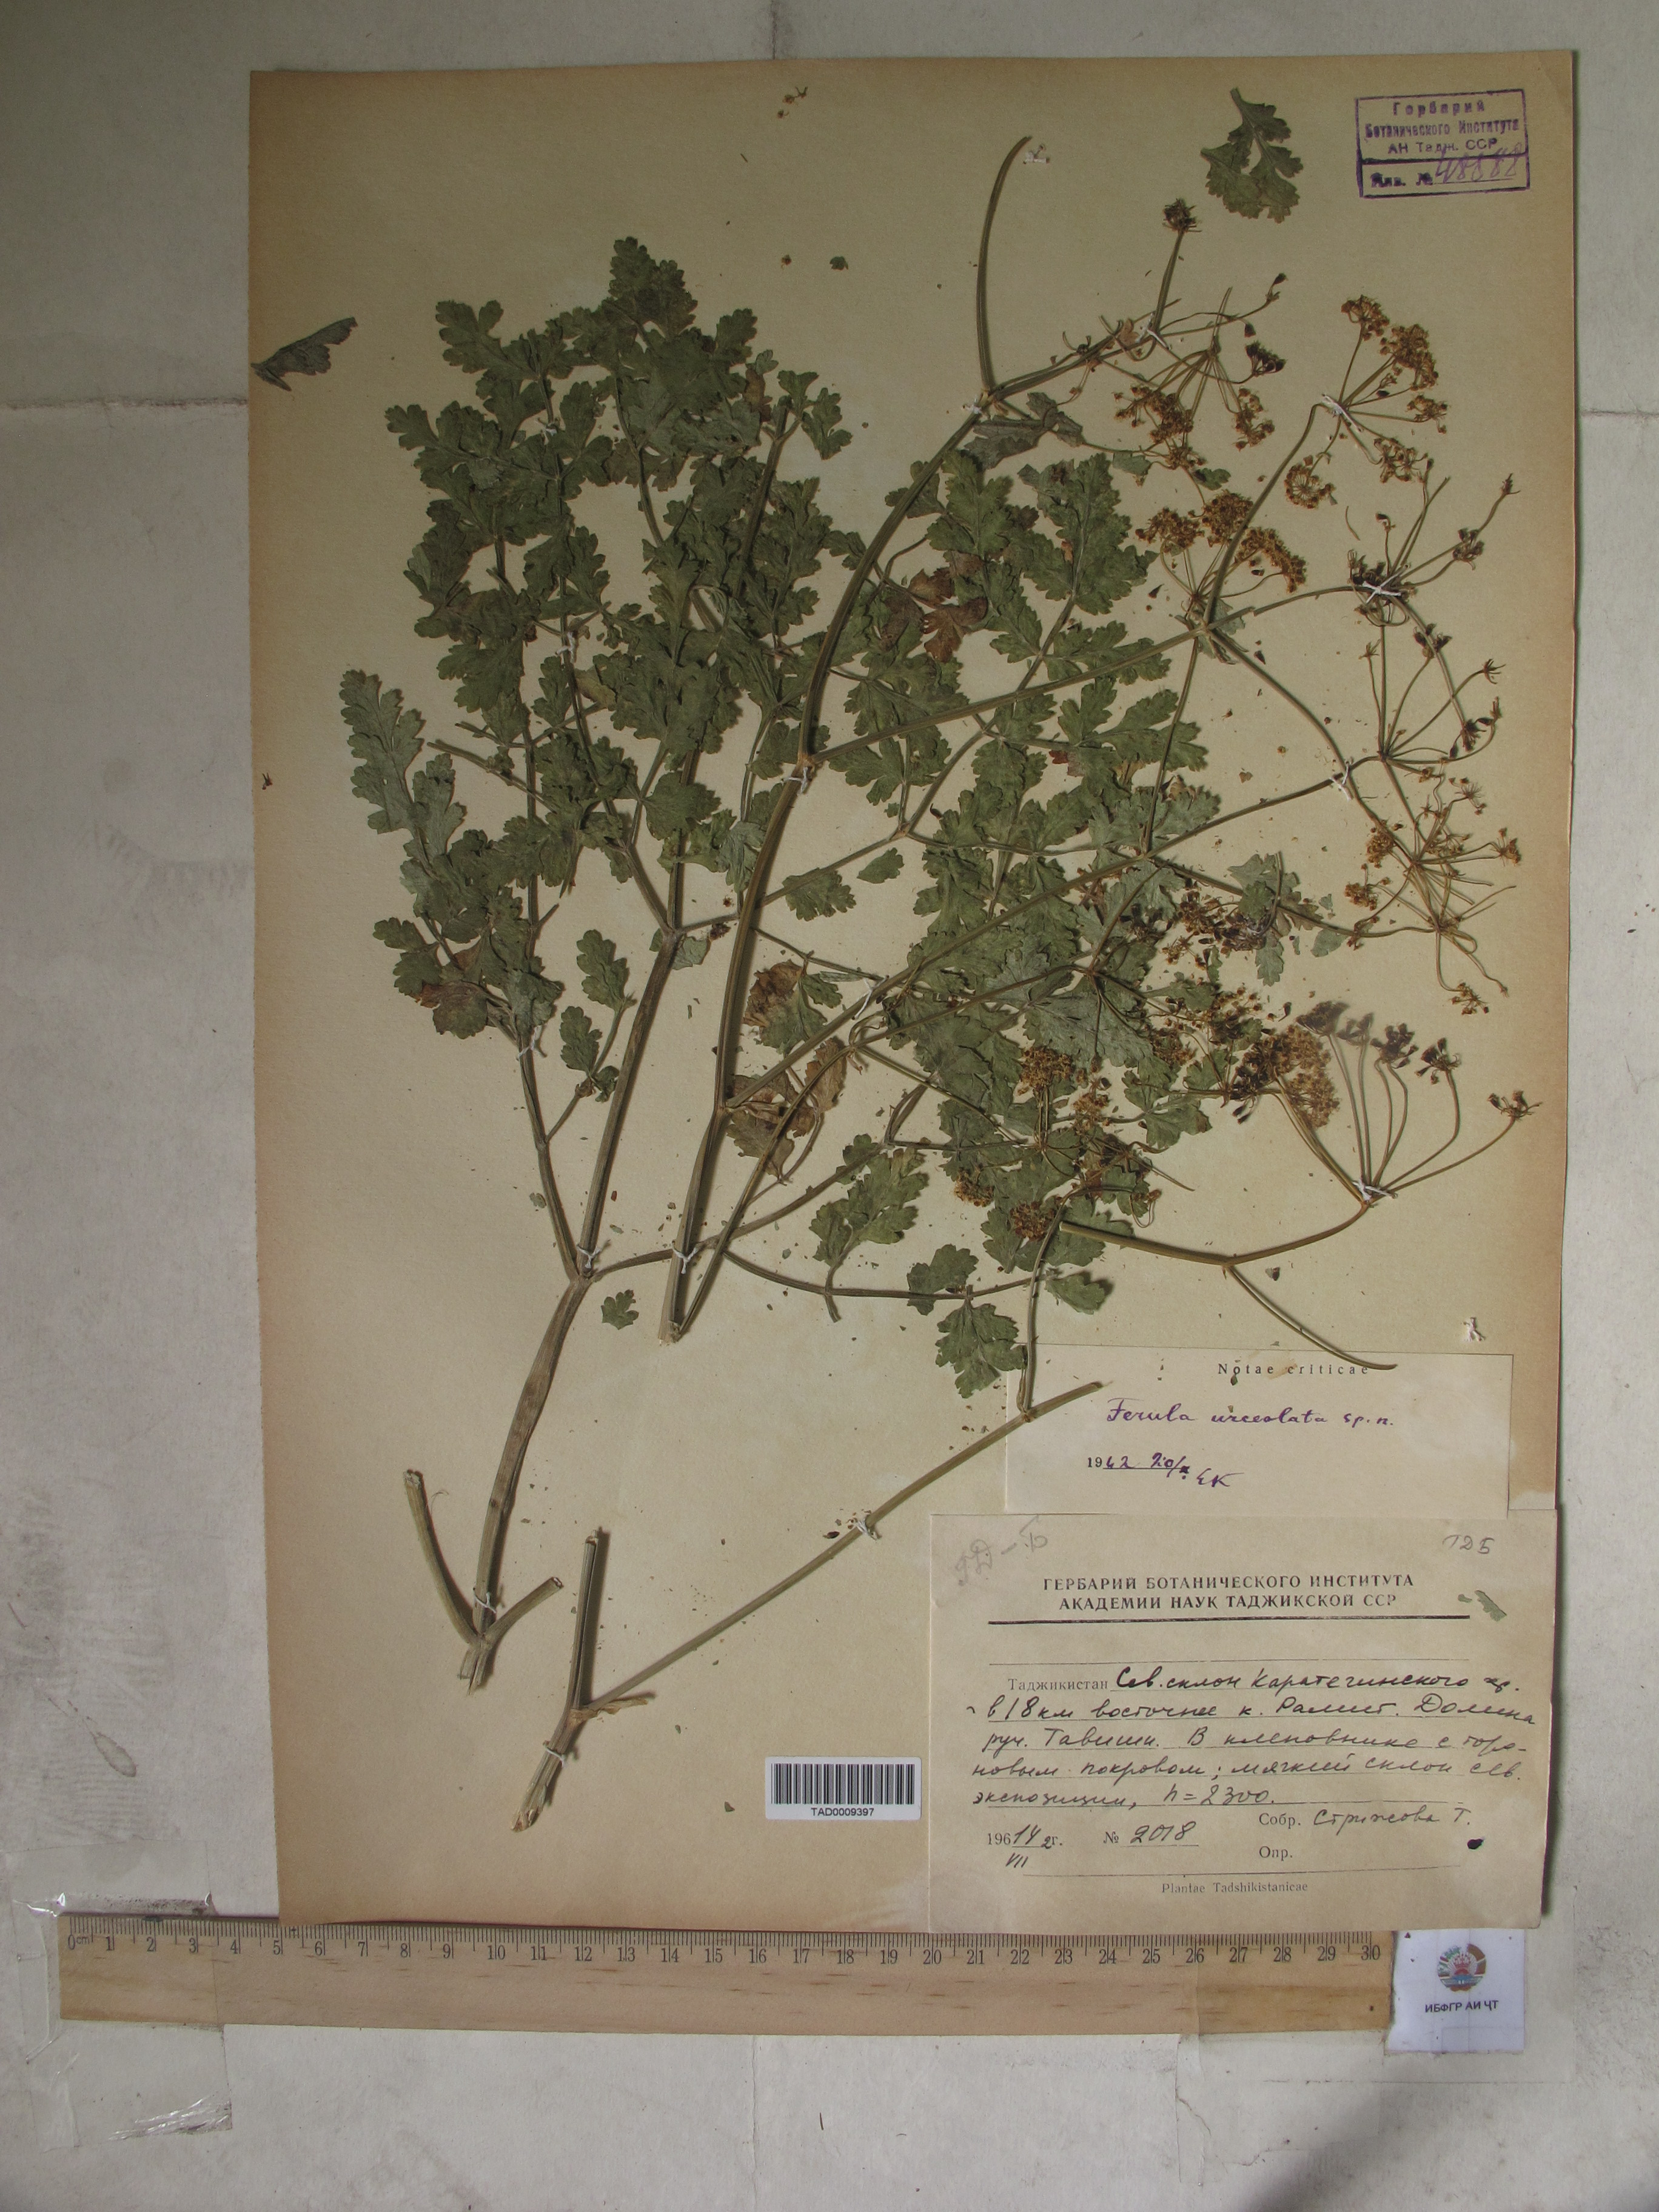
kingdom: Plantae
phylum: Tracheophyta
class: Magnoliopsida
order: Apiales
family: Apiaceae
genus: Ferula
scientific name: Ferula moschata
